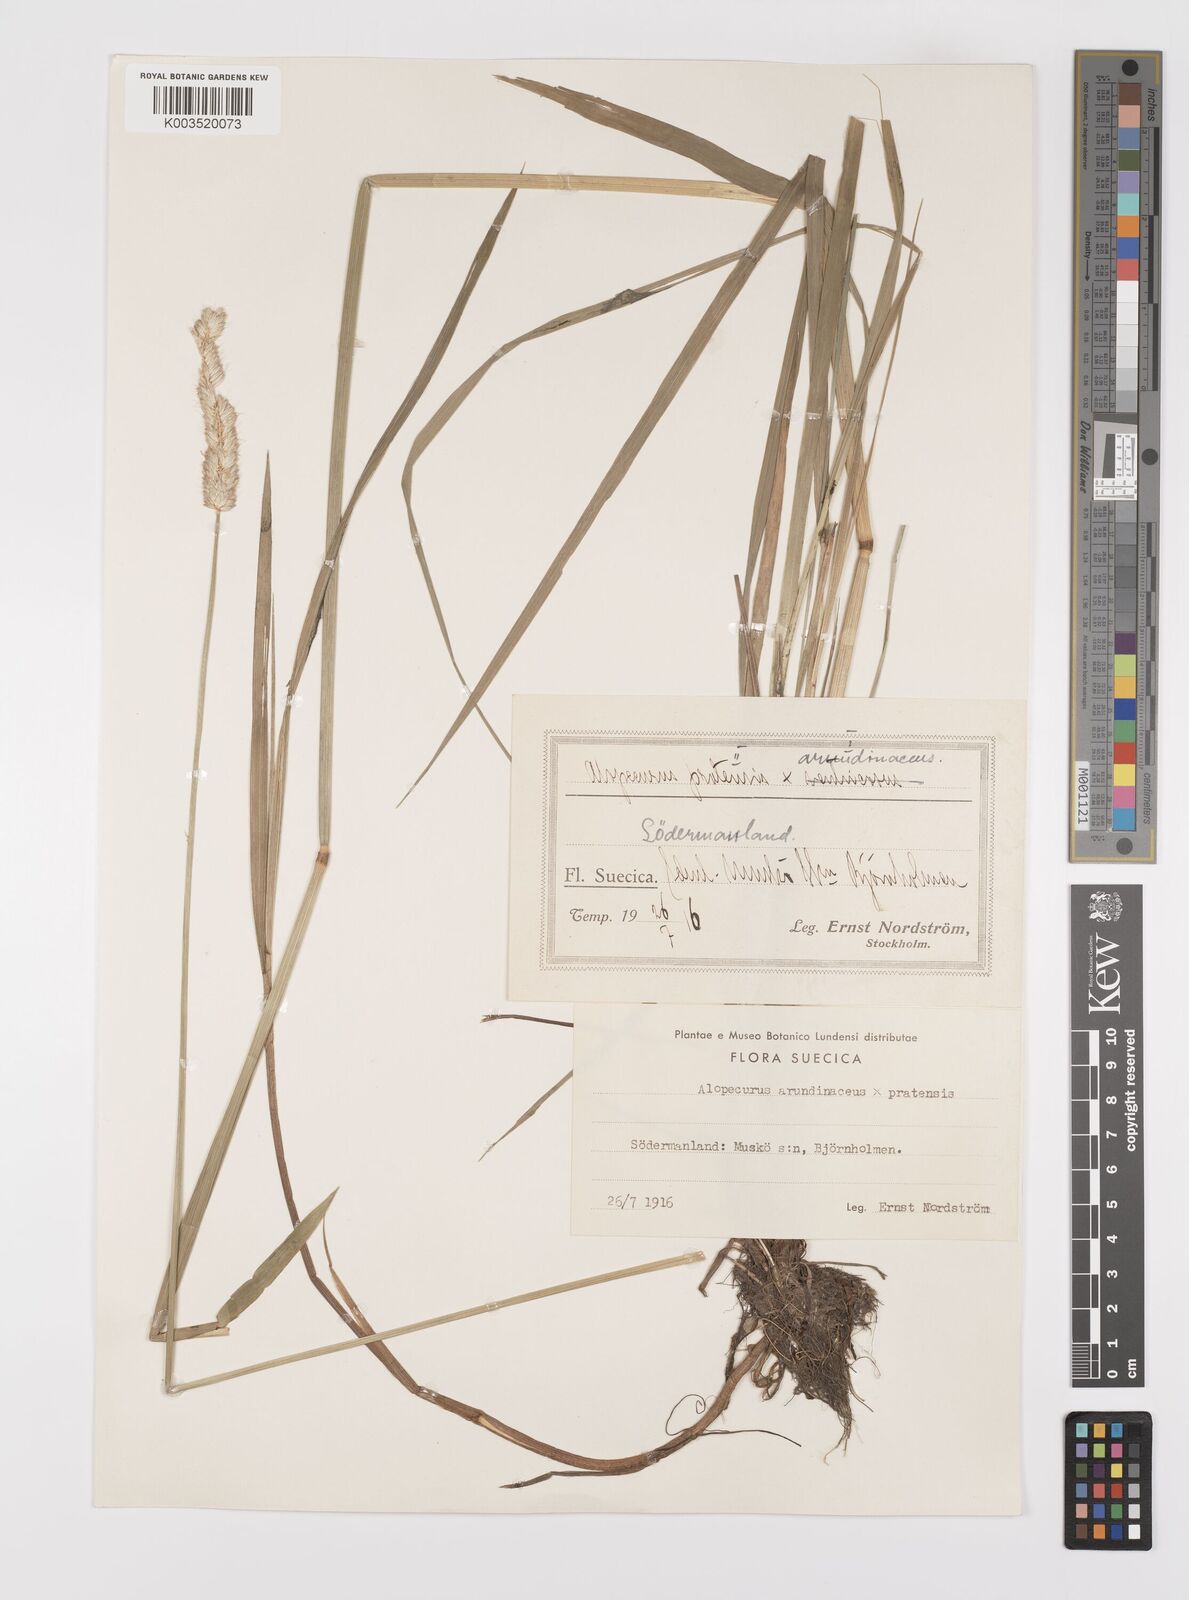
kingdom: Plantae
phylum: Tracheophyta
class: Liliopsida
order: Poales
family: Poaceae
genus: Alopecurus
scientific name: Alopecurus arundinaceus
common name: Creeping meadow foxtail
